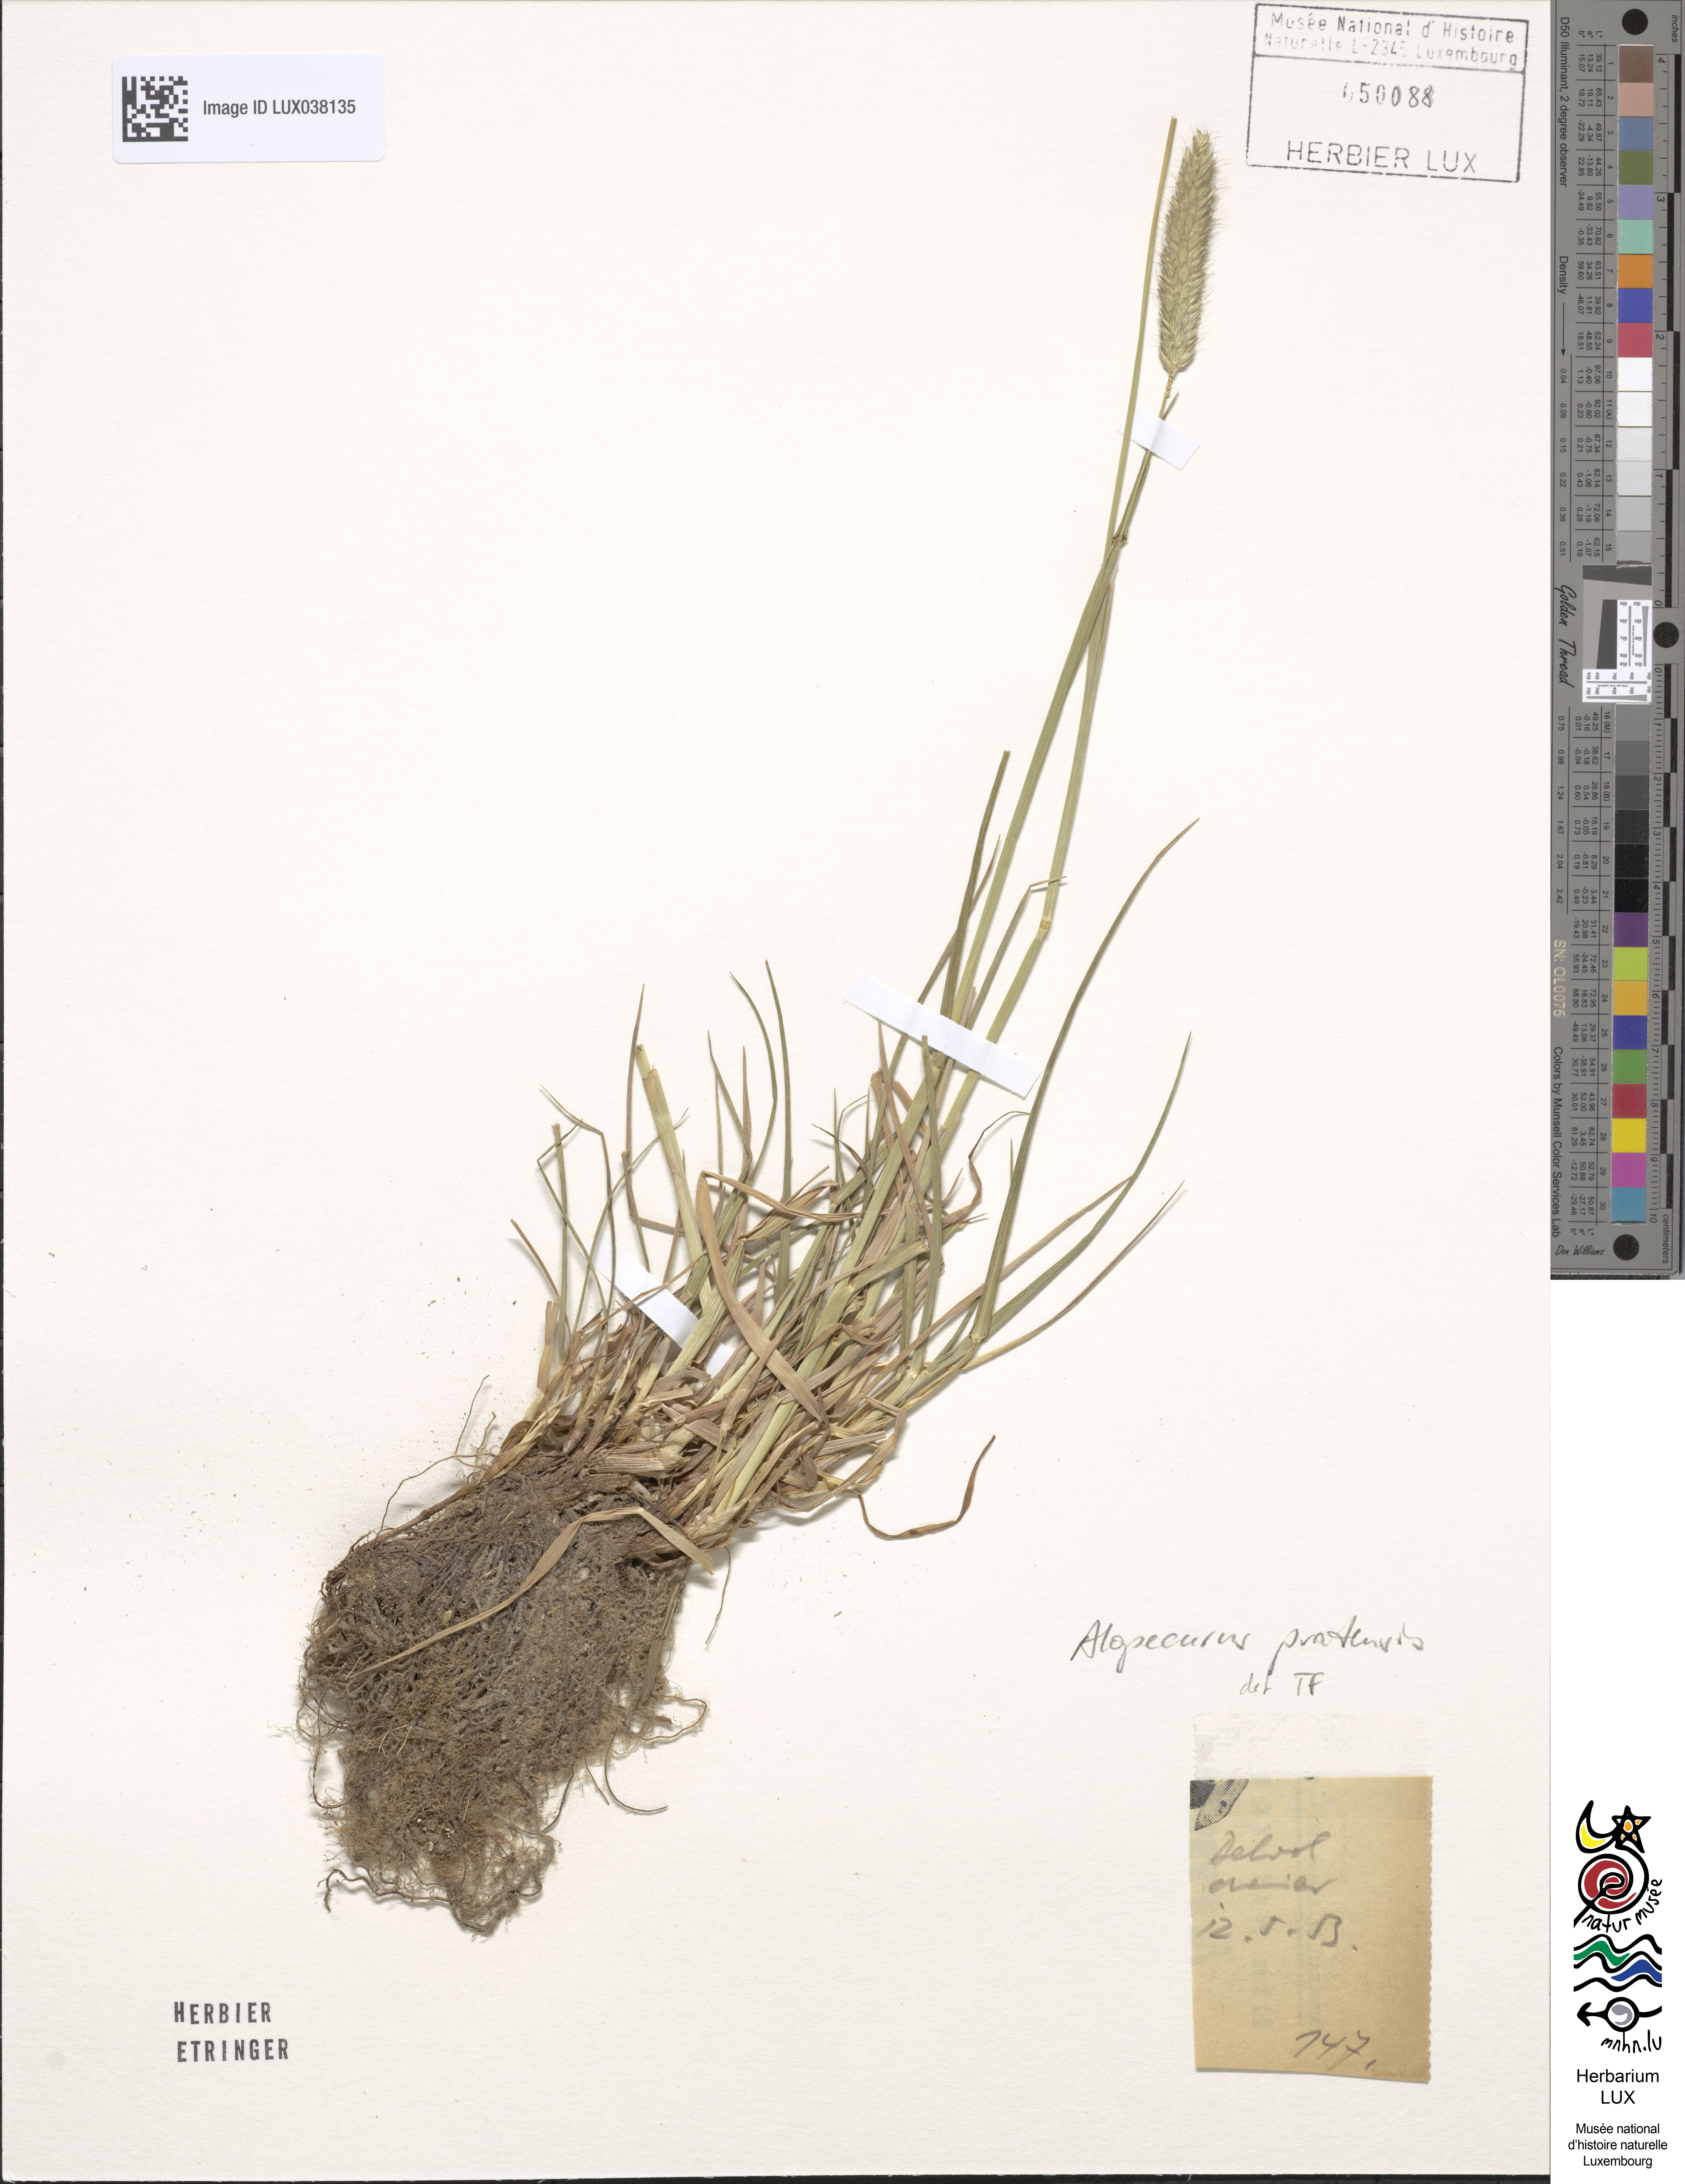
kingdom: Plantae
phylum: Tracheophyta
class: Liliopsida
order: Poales
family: Poaceae
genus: Alopecurus
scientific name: Alopecurus pratensis
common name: Meadow foxtail
